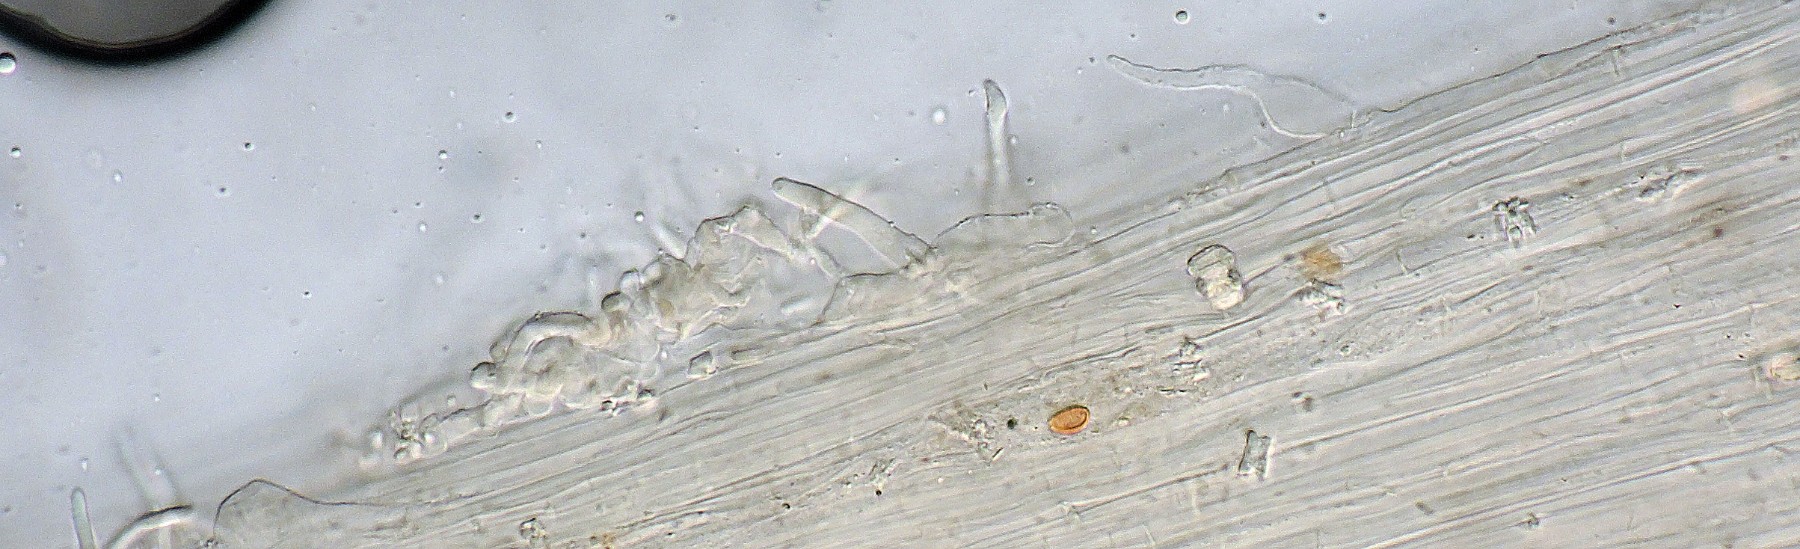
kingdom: Fungi
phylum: Basidiomycota
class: Agaricomycetes
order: Agaricales
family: Bolbitiaceae
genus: Conocybe
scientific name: Conocybe mairei
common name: spinkel dansehat
